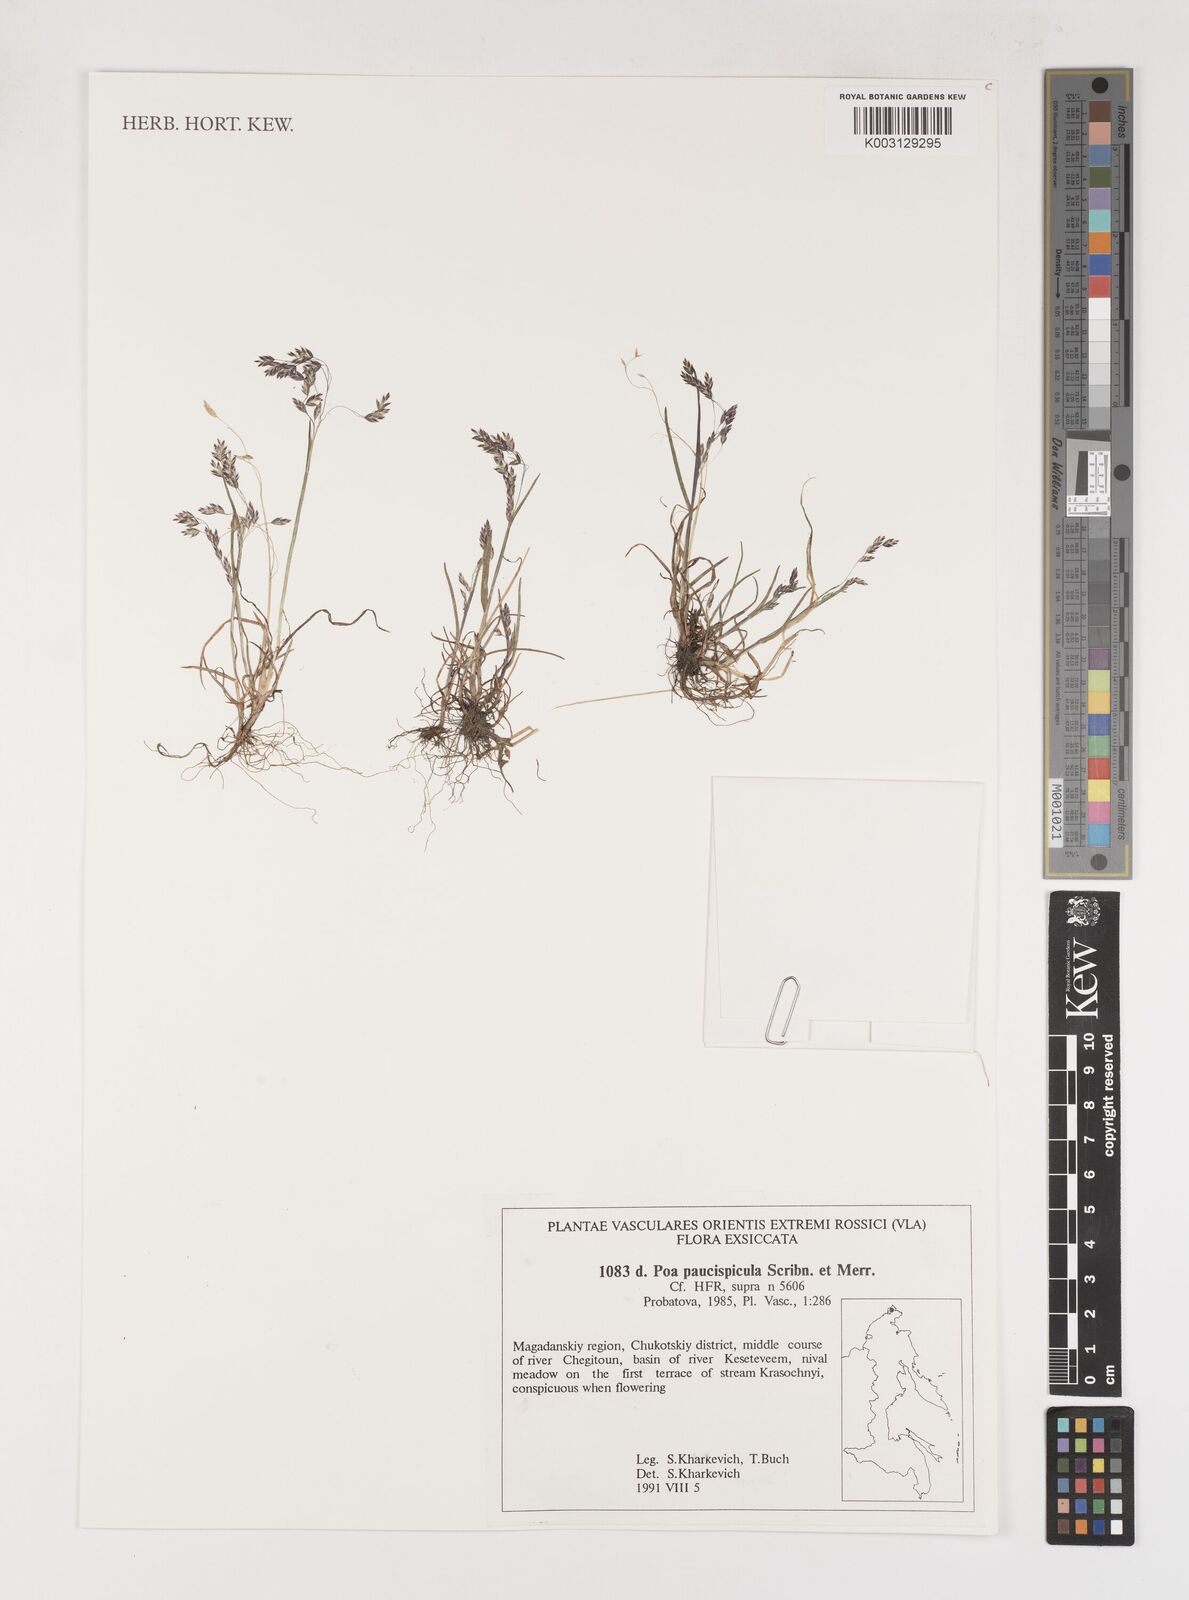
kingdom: Plantae
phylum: Tracheophyta
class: Liliopsida
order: Poales
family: Poaceae
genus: Poa
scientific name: Poa paucispicula
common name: Alaska bluegrass
